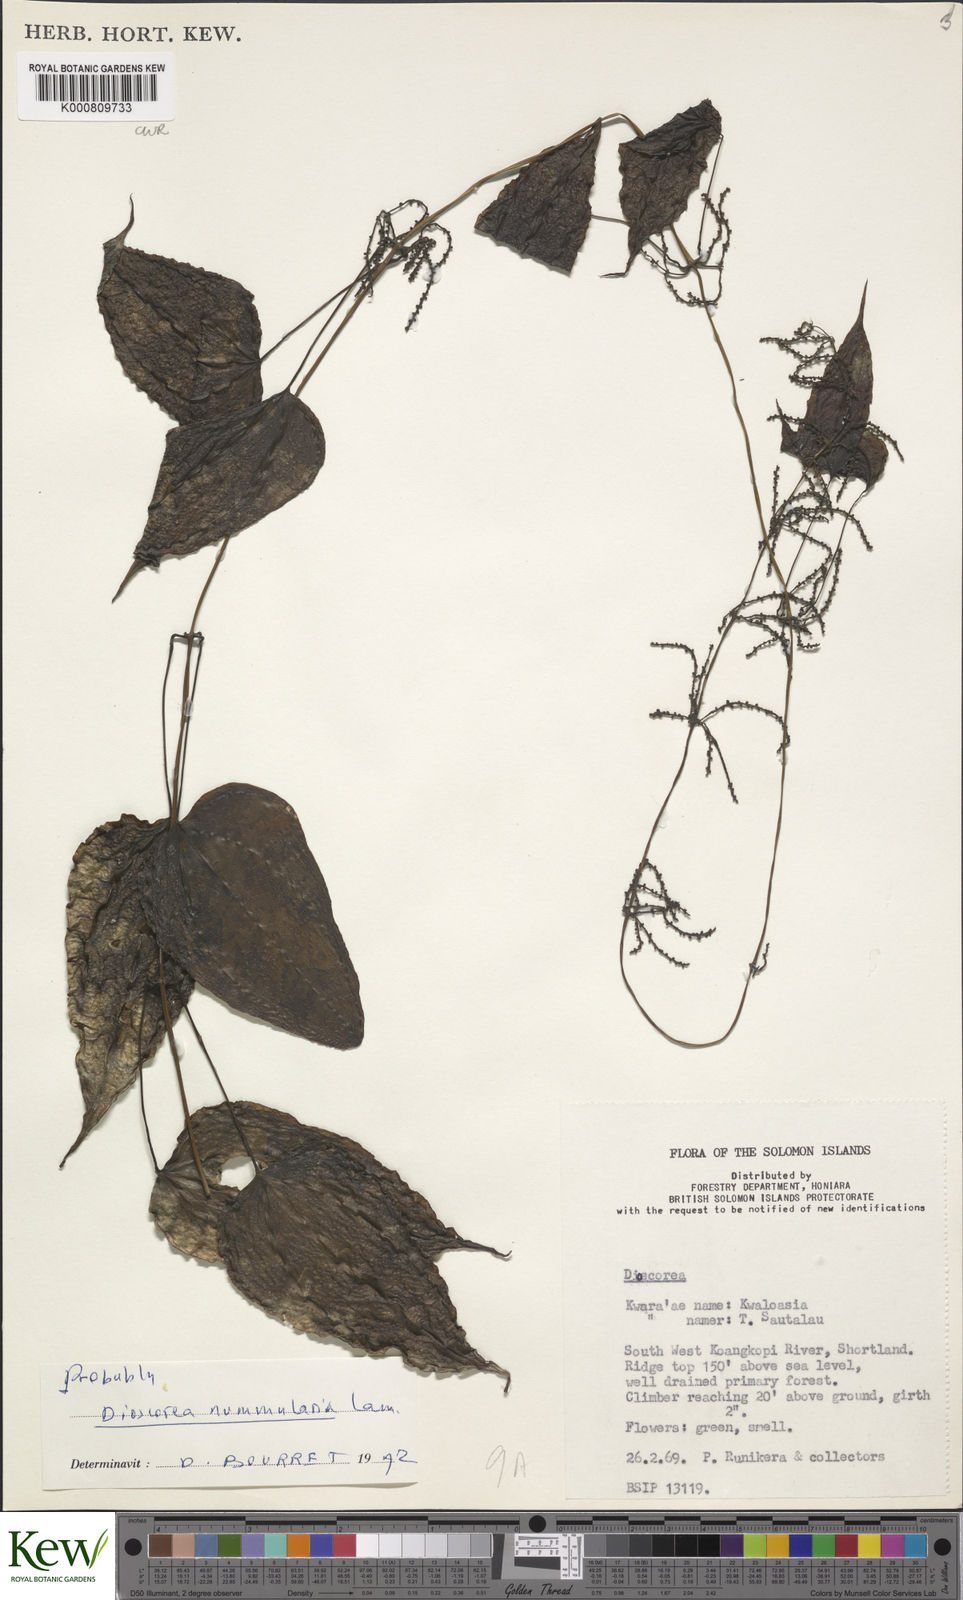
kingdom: Plantae
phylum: Tracheophyta
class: Liliopsida
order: Dioscoreales
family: Dioscoreaceae
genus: Dioscorea
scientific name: Dioscorea nummularia
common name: Pacific yam
